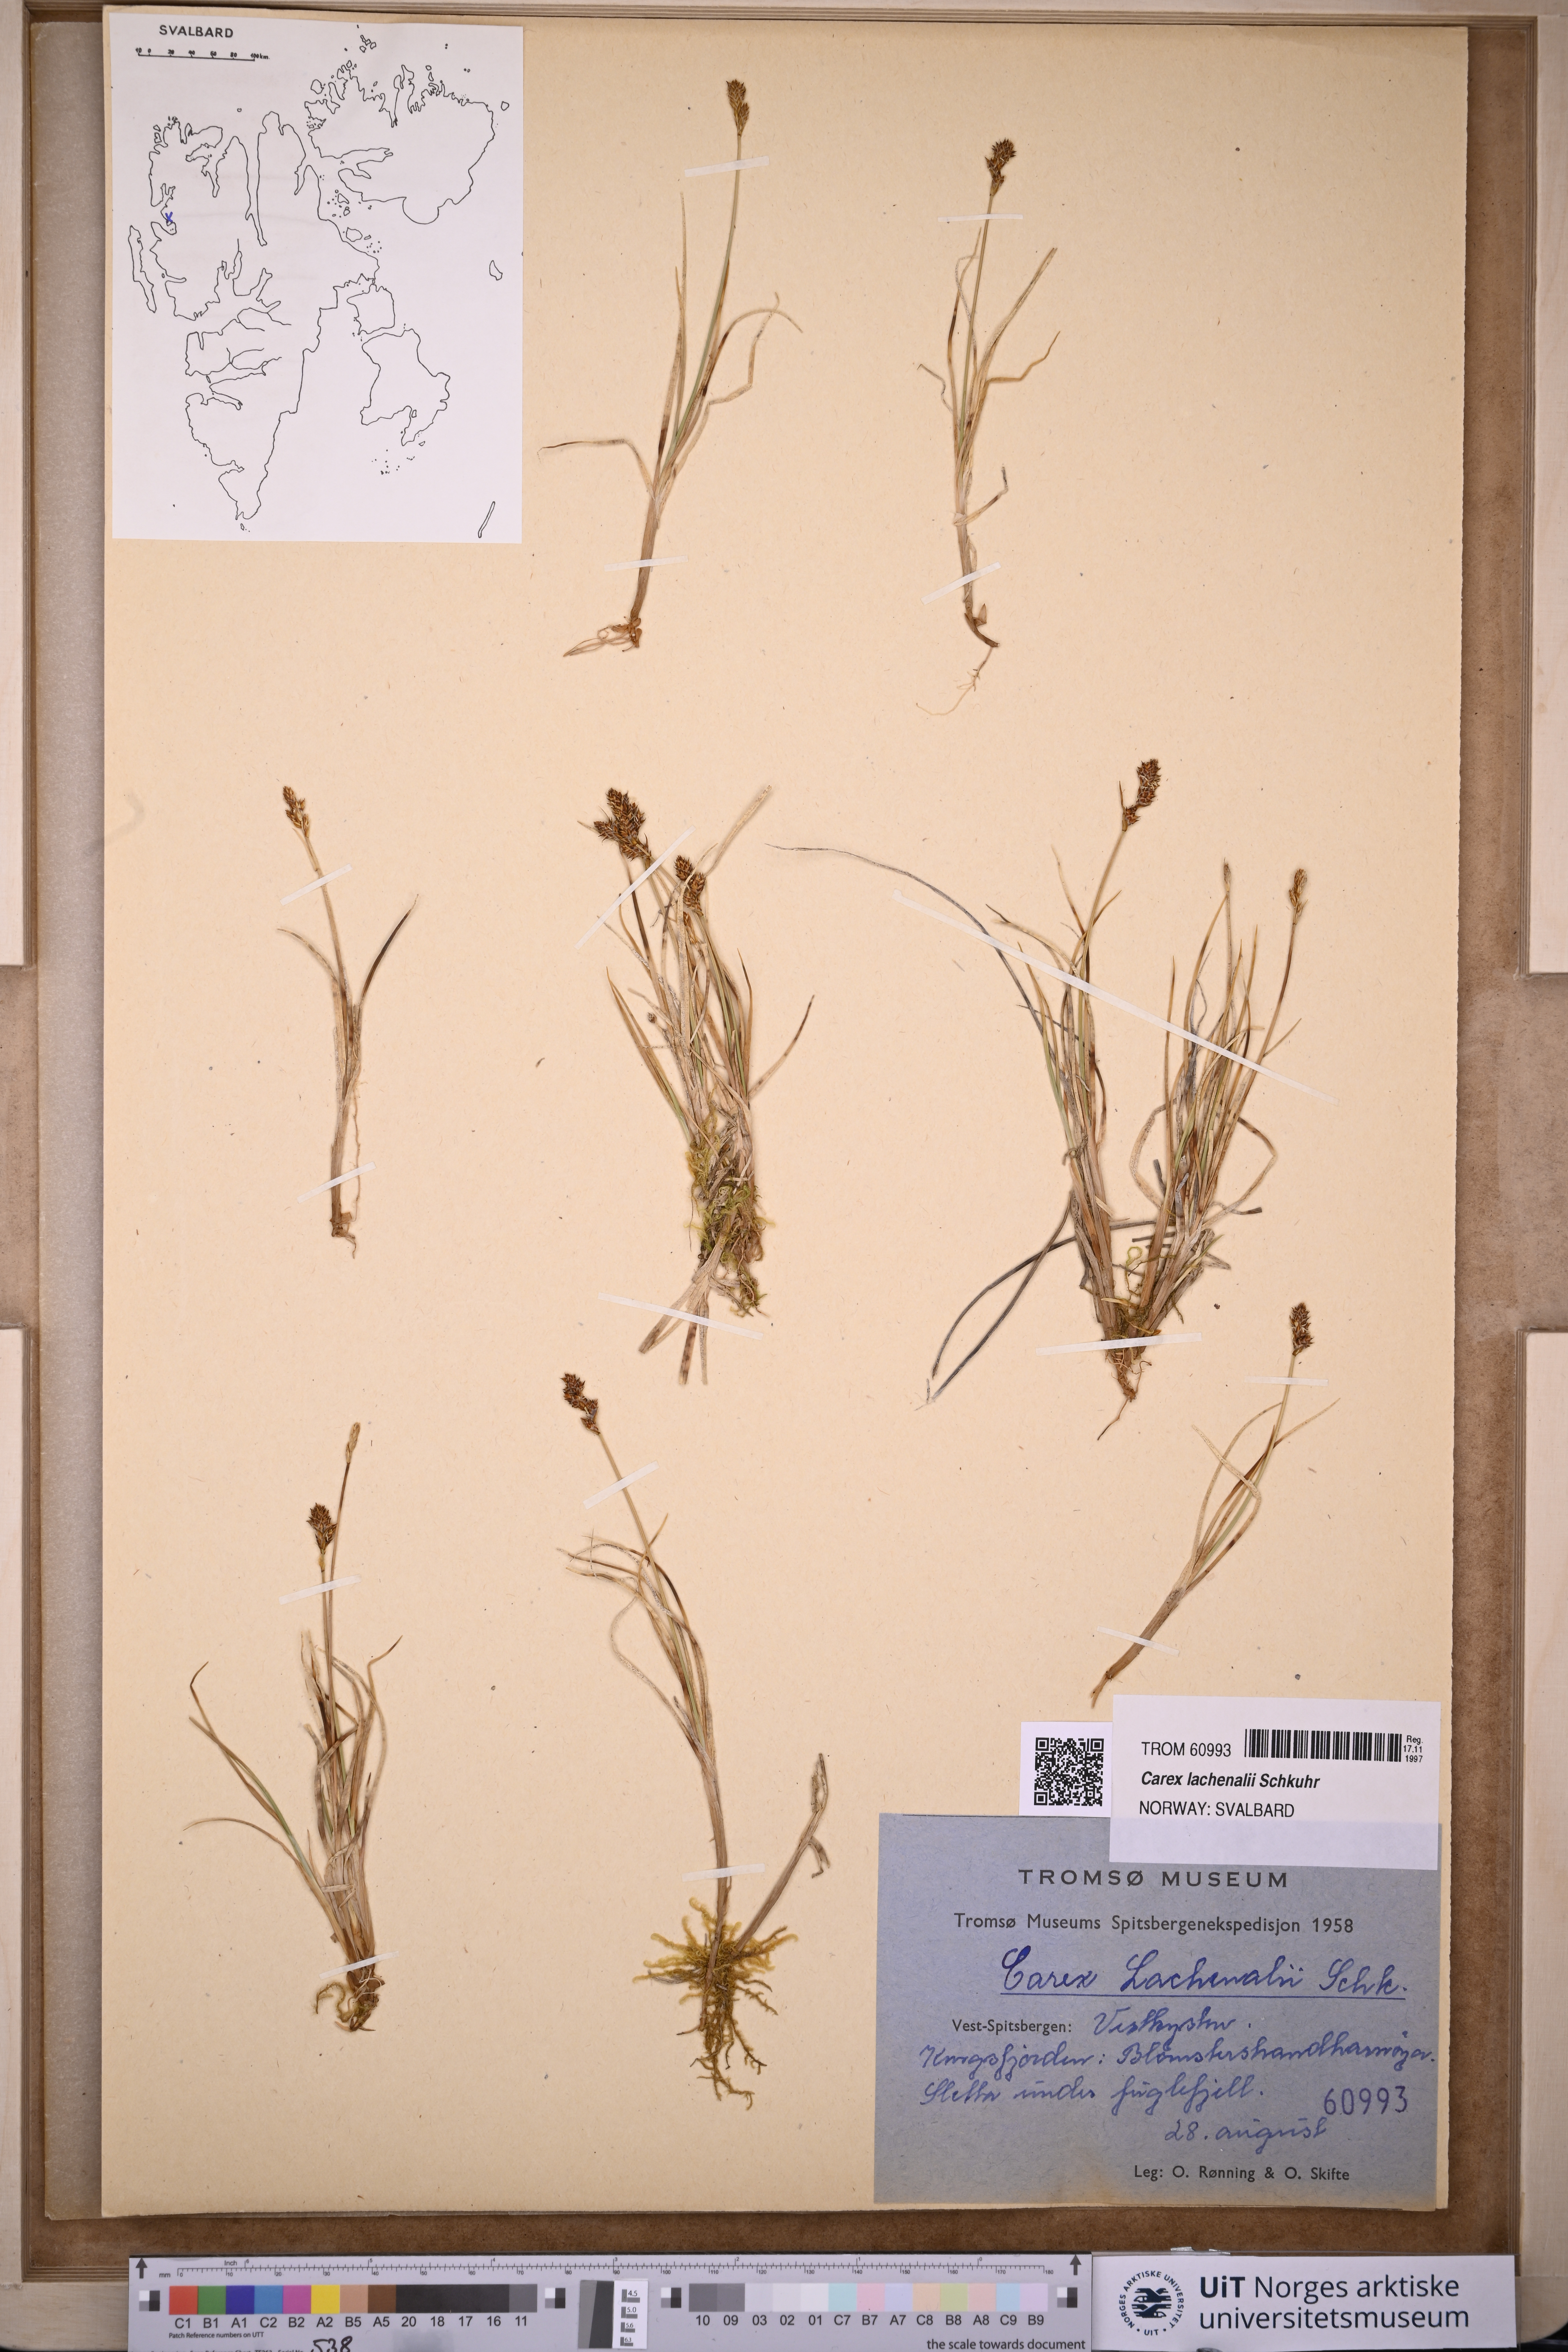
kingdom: Plantae
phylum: Tracheophyta
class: Liliopsida
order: Poales
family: Cyperaceae
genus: Carex
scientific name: Carex lachenalii
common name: Hare's-foot sedge
